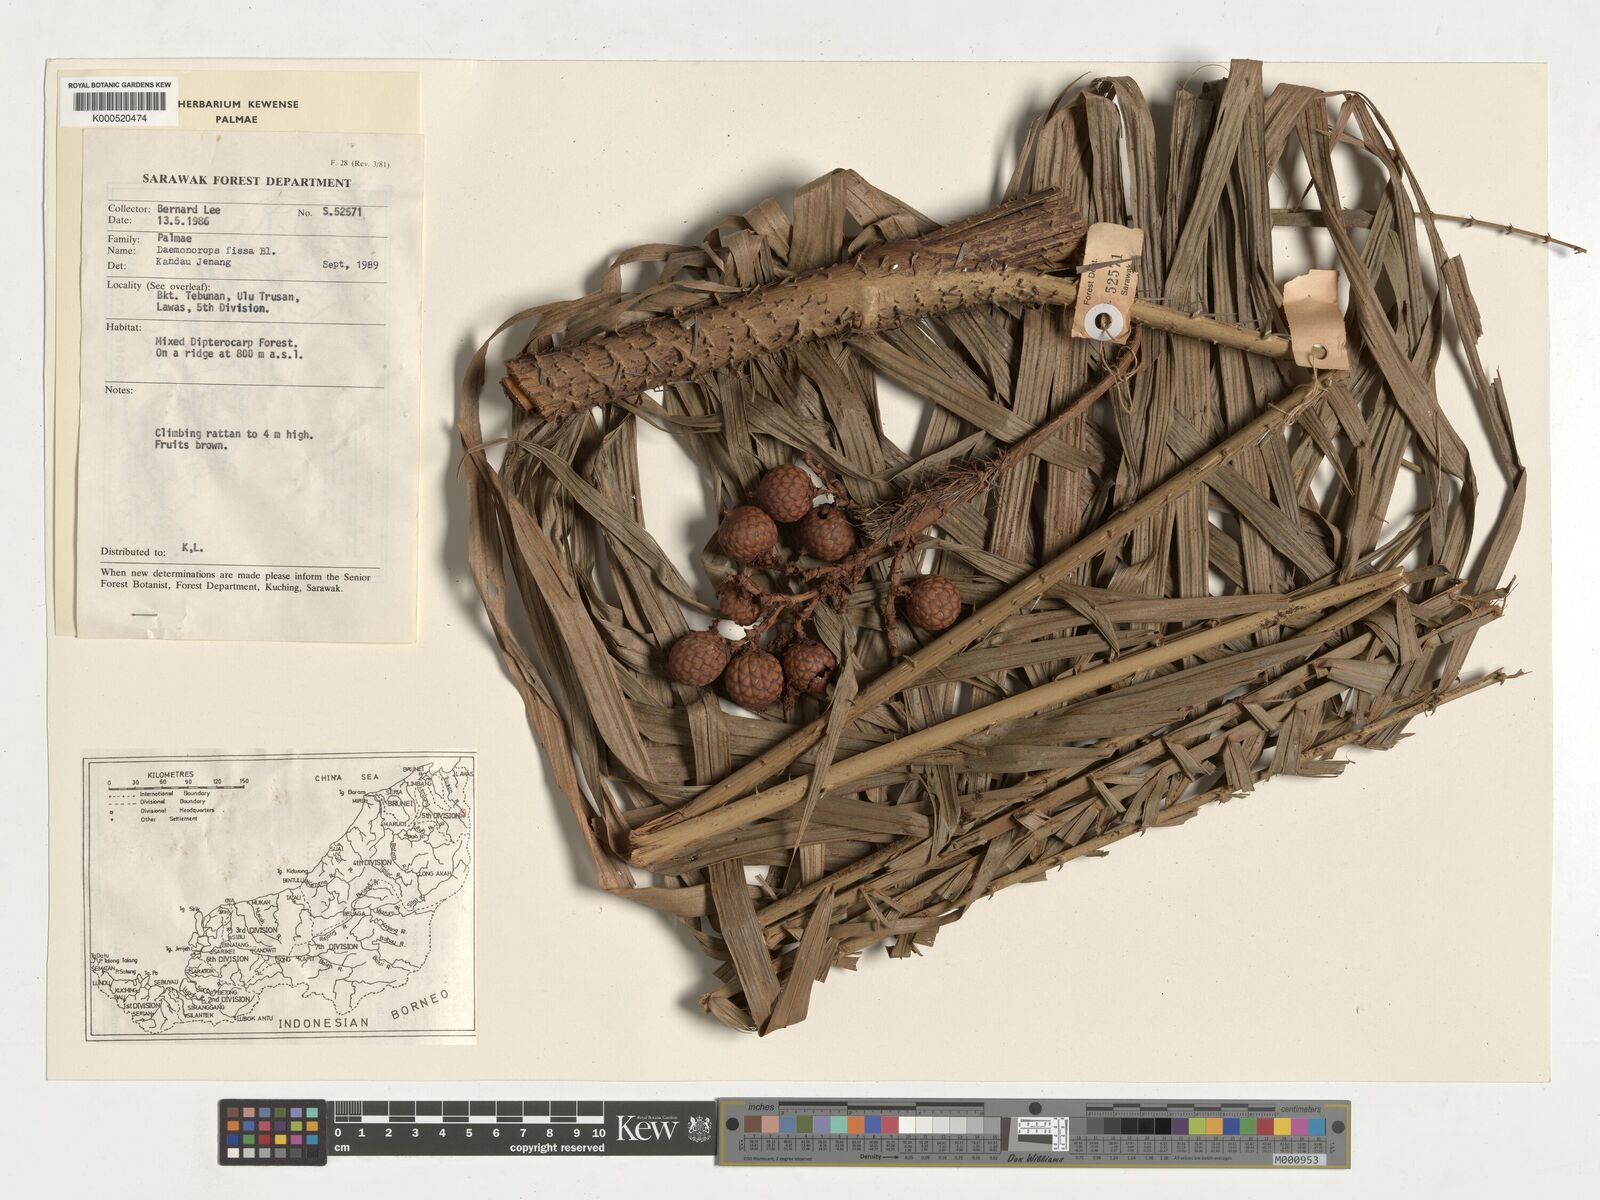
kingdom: Plantae
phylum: Tracheophyta
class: Liliopsida
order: Arecales
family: Arecaceae
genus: Calamus
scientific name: Calamus melanochaetes
